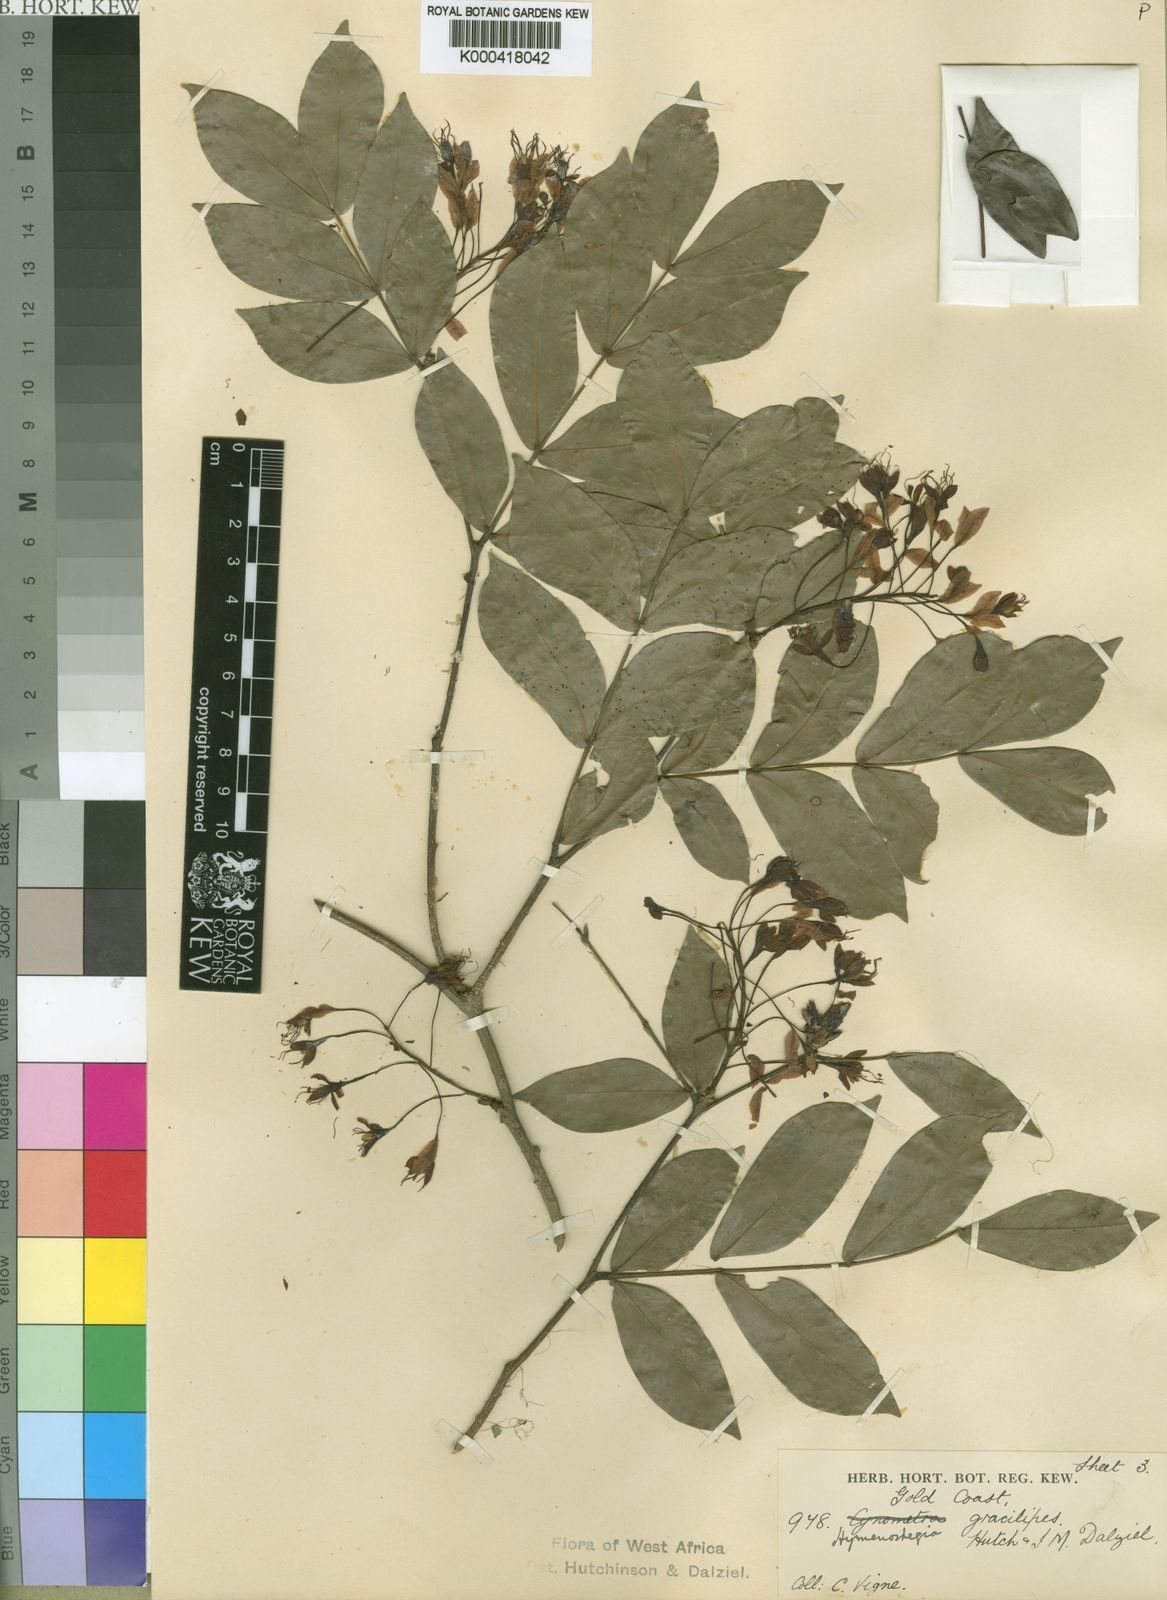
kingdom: Plantae
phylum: Tracheophyta
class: Magnoliopsida
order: Fabales
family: Fabaceae
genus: Cynometra
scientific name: Cynometra
